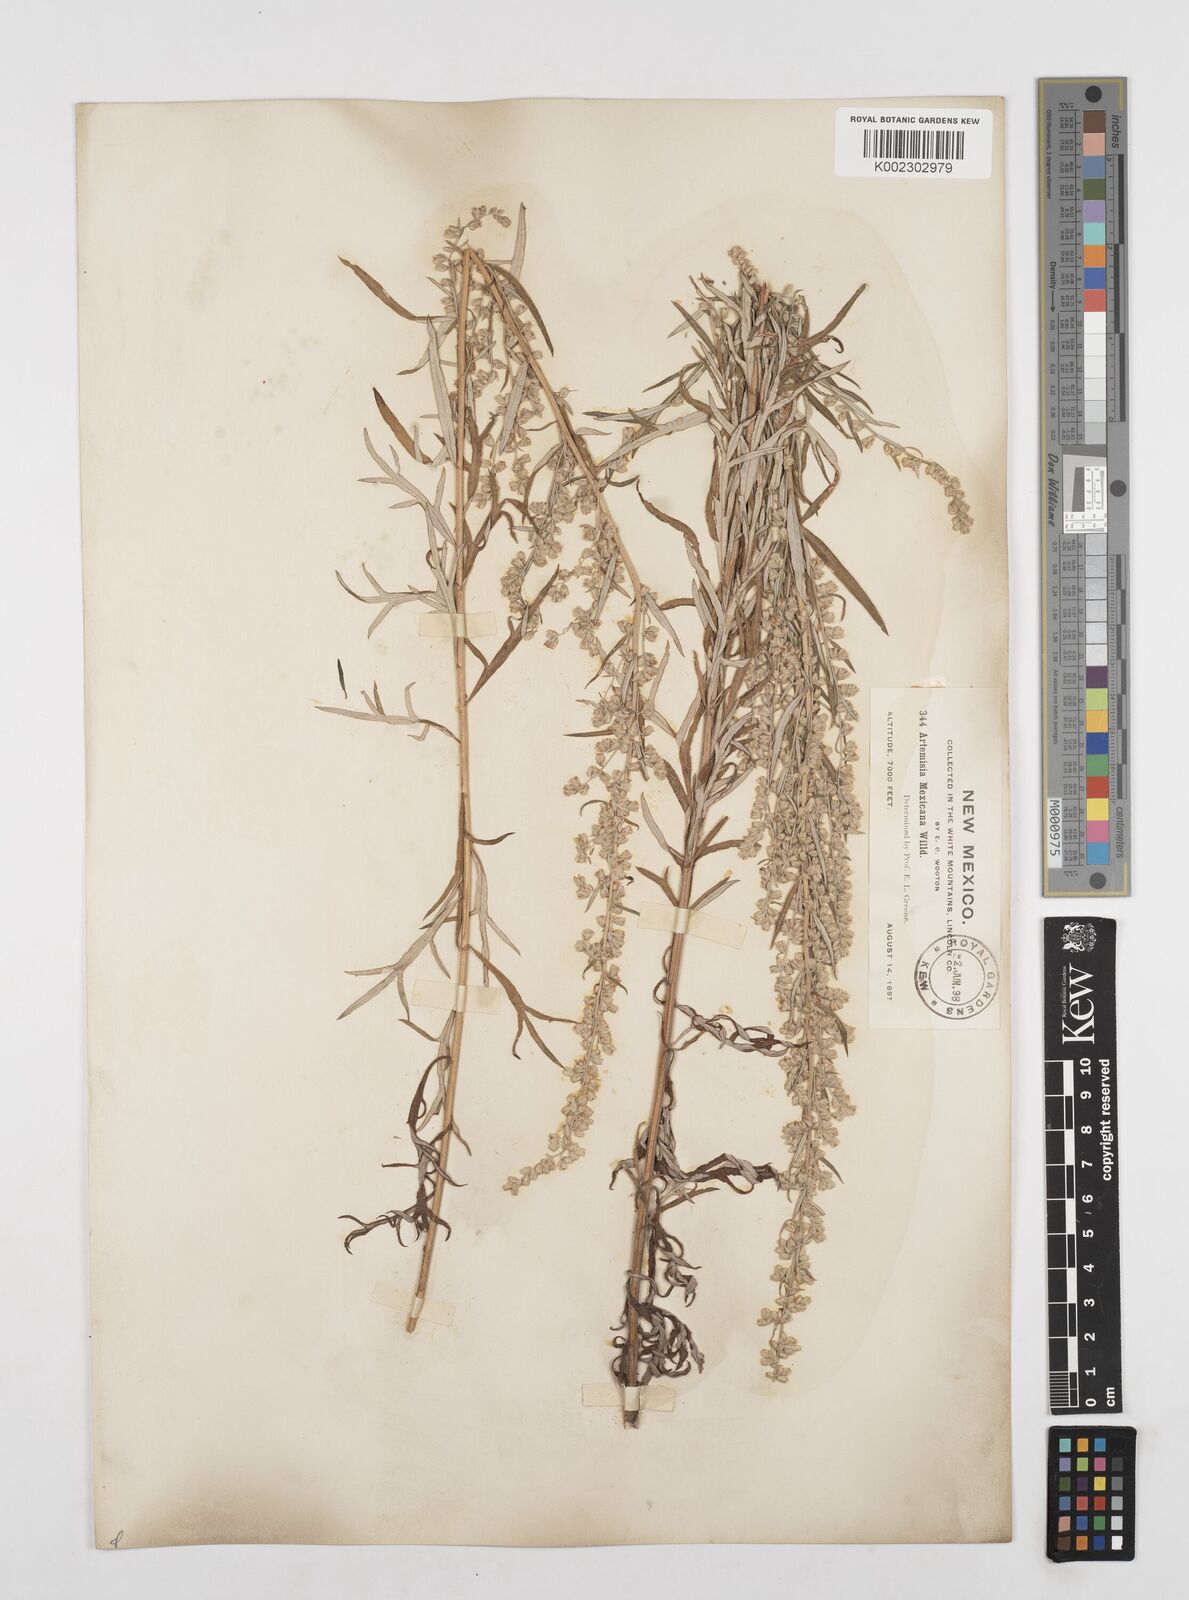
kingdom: Plantae
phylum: Tracheophyta
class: Magnoliopsida
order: Asterales
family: Asteraceae
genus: Artemisia
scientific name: Artemisia ludoviciana
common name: Western mugwort
